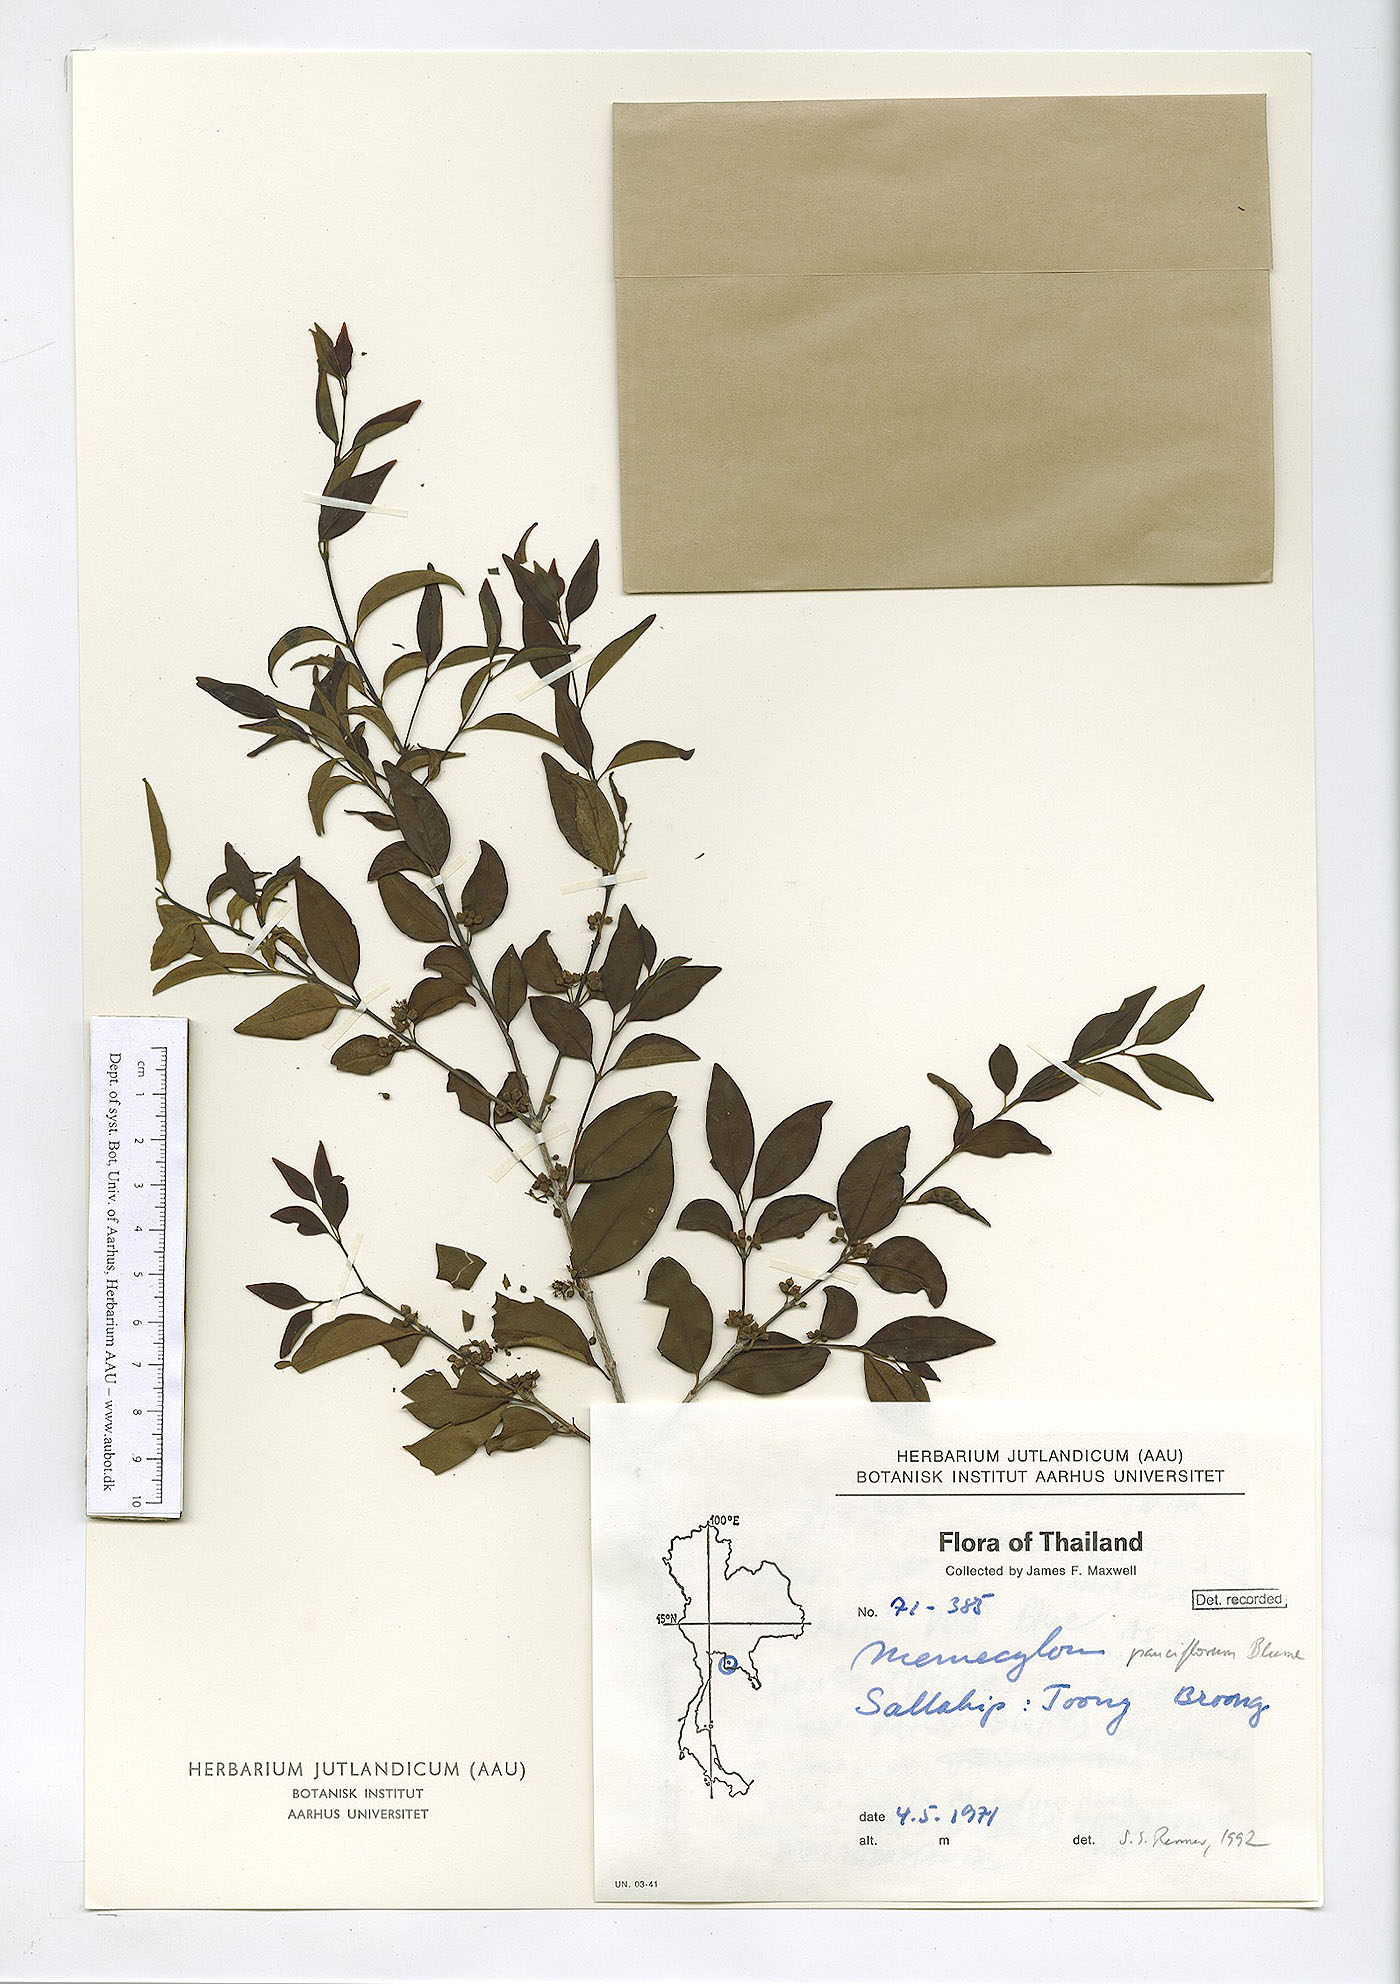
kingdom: Plantae
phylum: Tracheophyta
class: Magnoliopsida
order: Myrtales
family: Melastomataceae
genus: Memecylon
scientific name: Memecylon scutellatum
